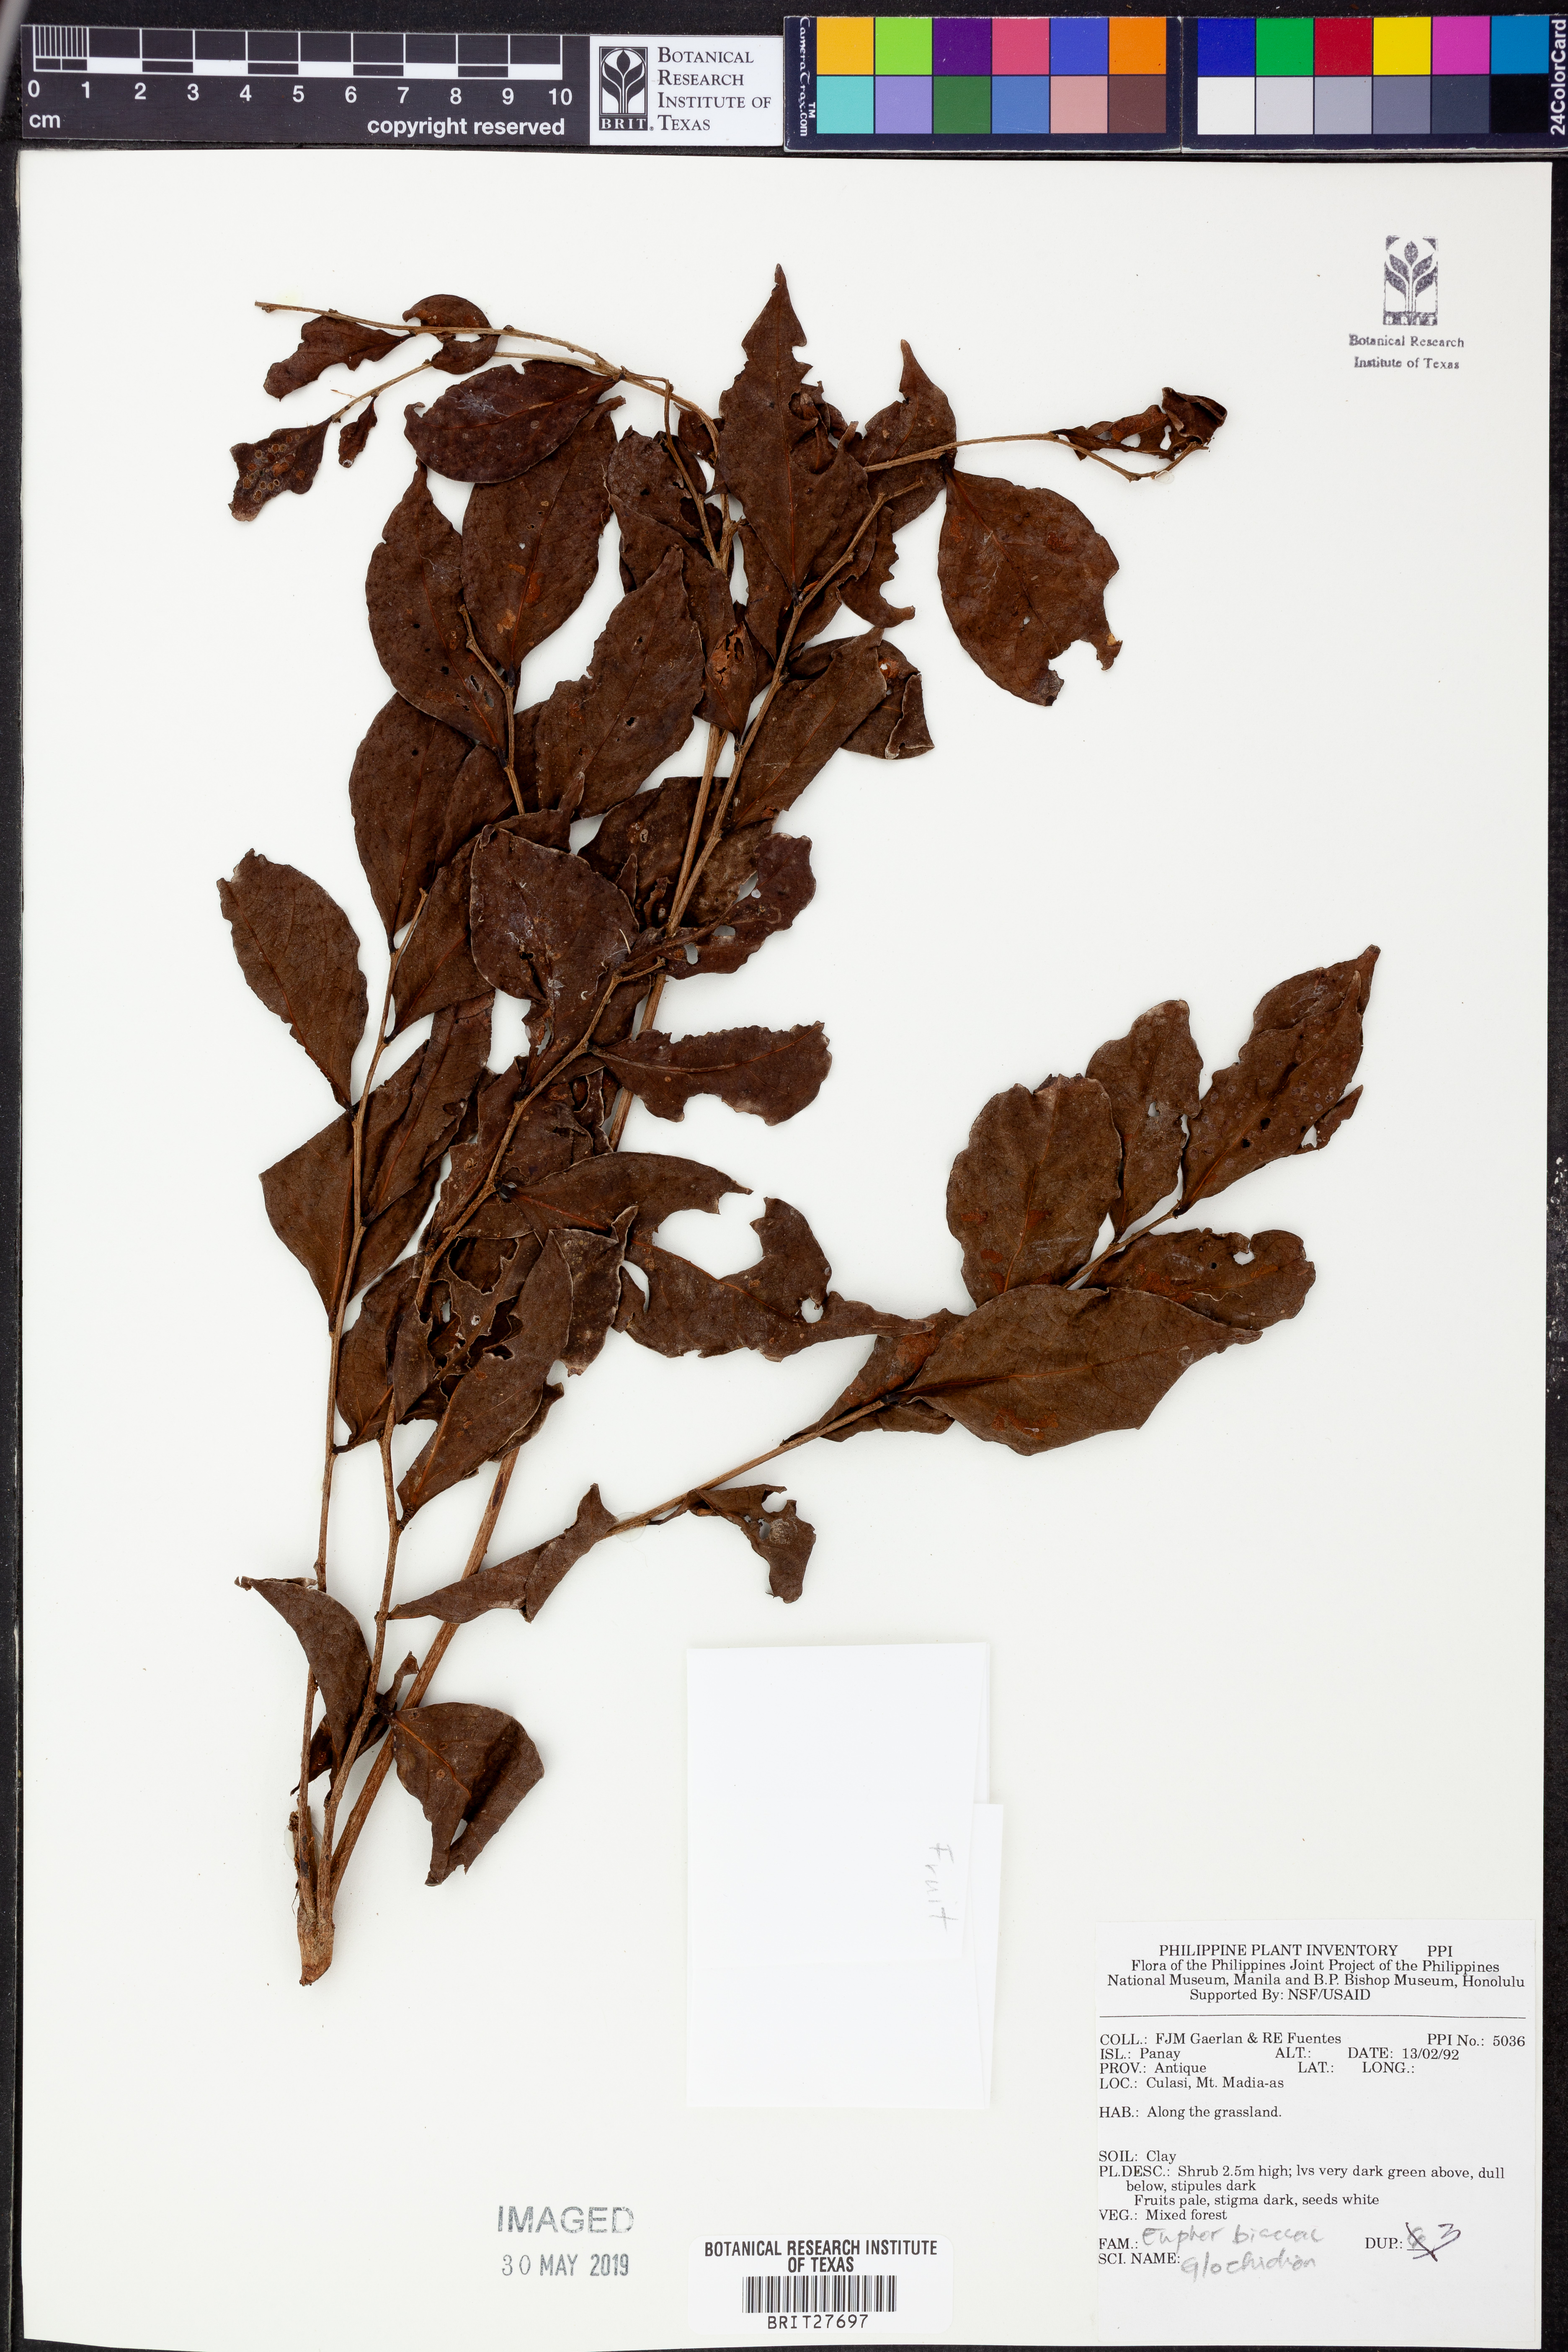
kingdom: Plantae
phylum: Tracheophyta
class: Magnoliopsida
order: Malpighiales
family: Phyllanthaceae
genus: Glochidion
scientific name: Glochidion
